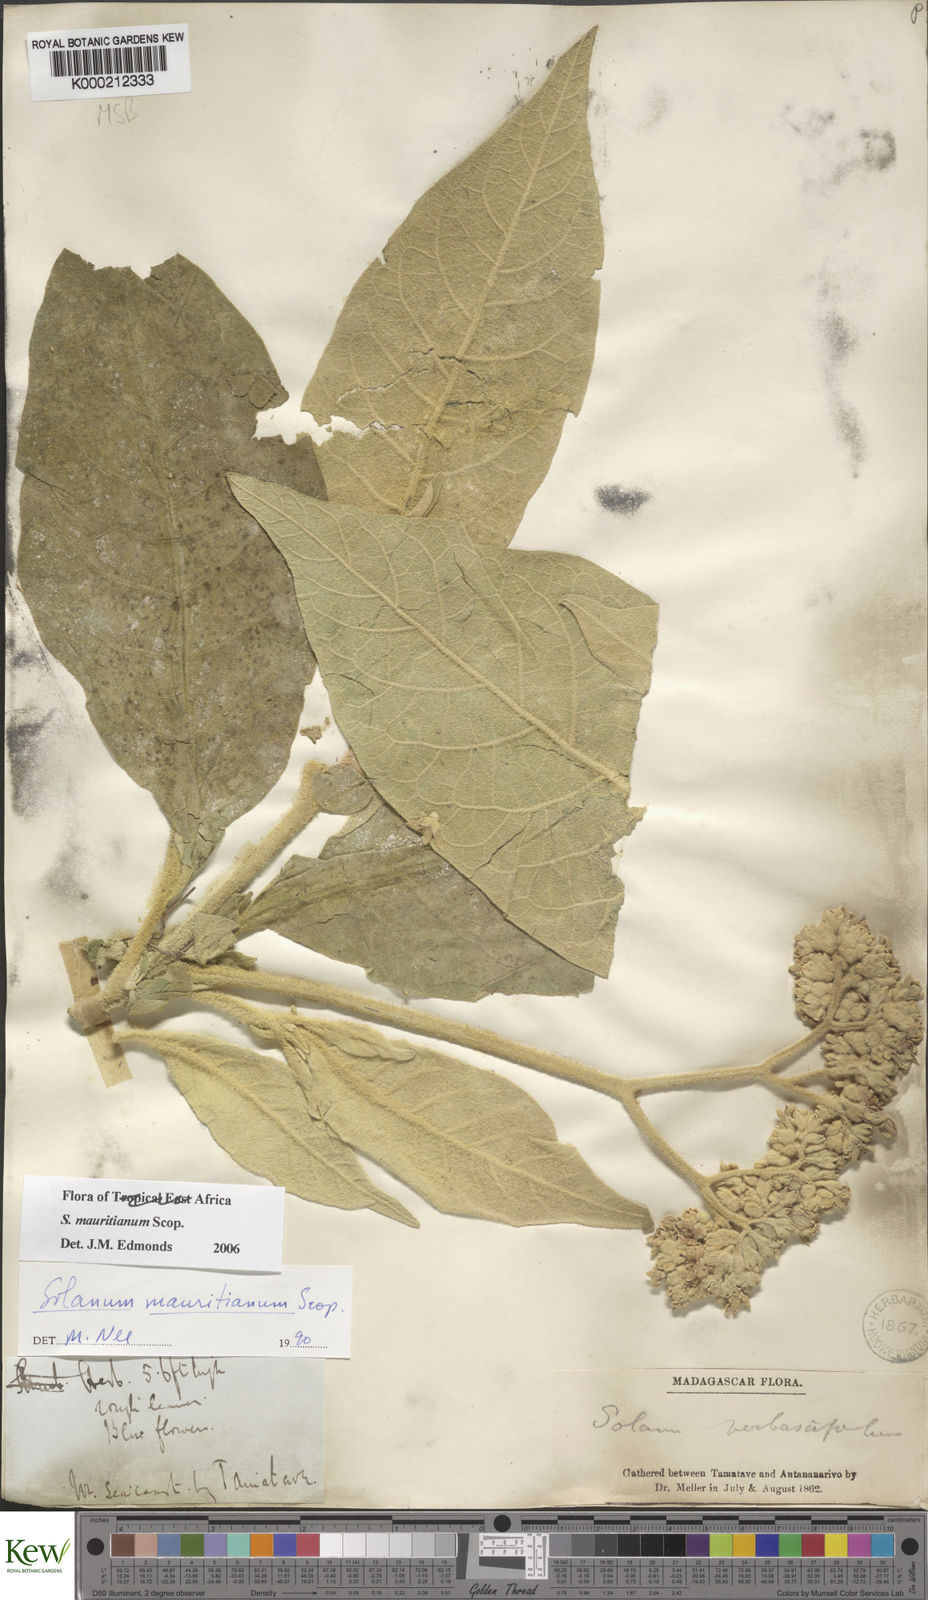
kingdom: Plantae
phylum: Tracheophyta
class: Magnoliopsida
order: Solanales
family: Solanaceae
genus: Solanum
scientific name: Solanum mauritianum
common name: Earleaf nightshade
